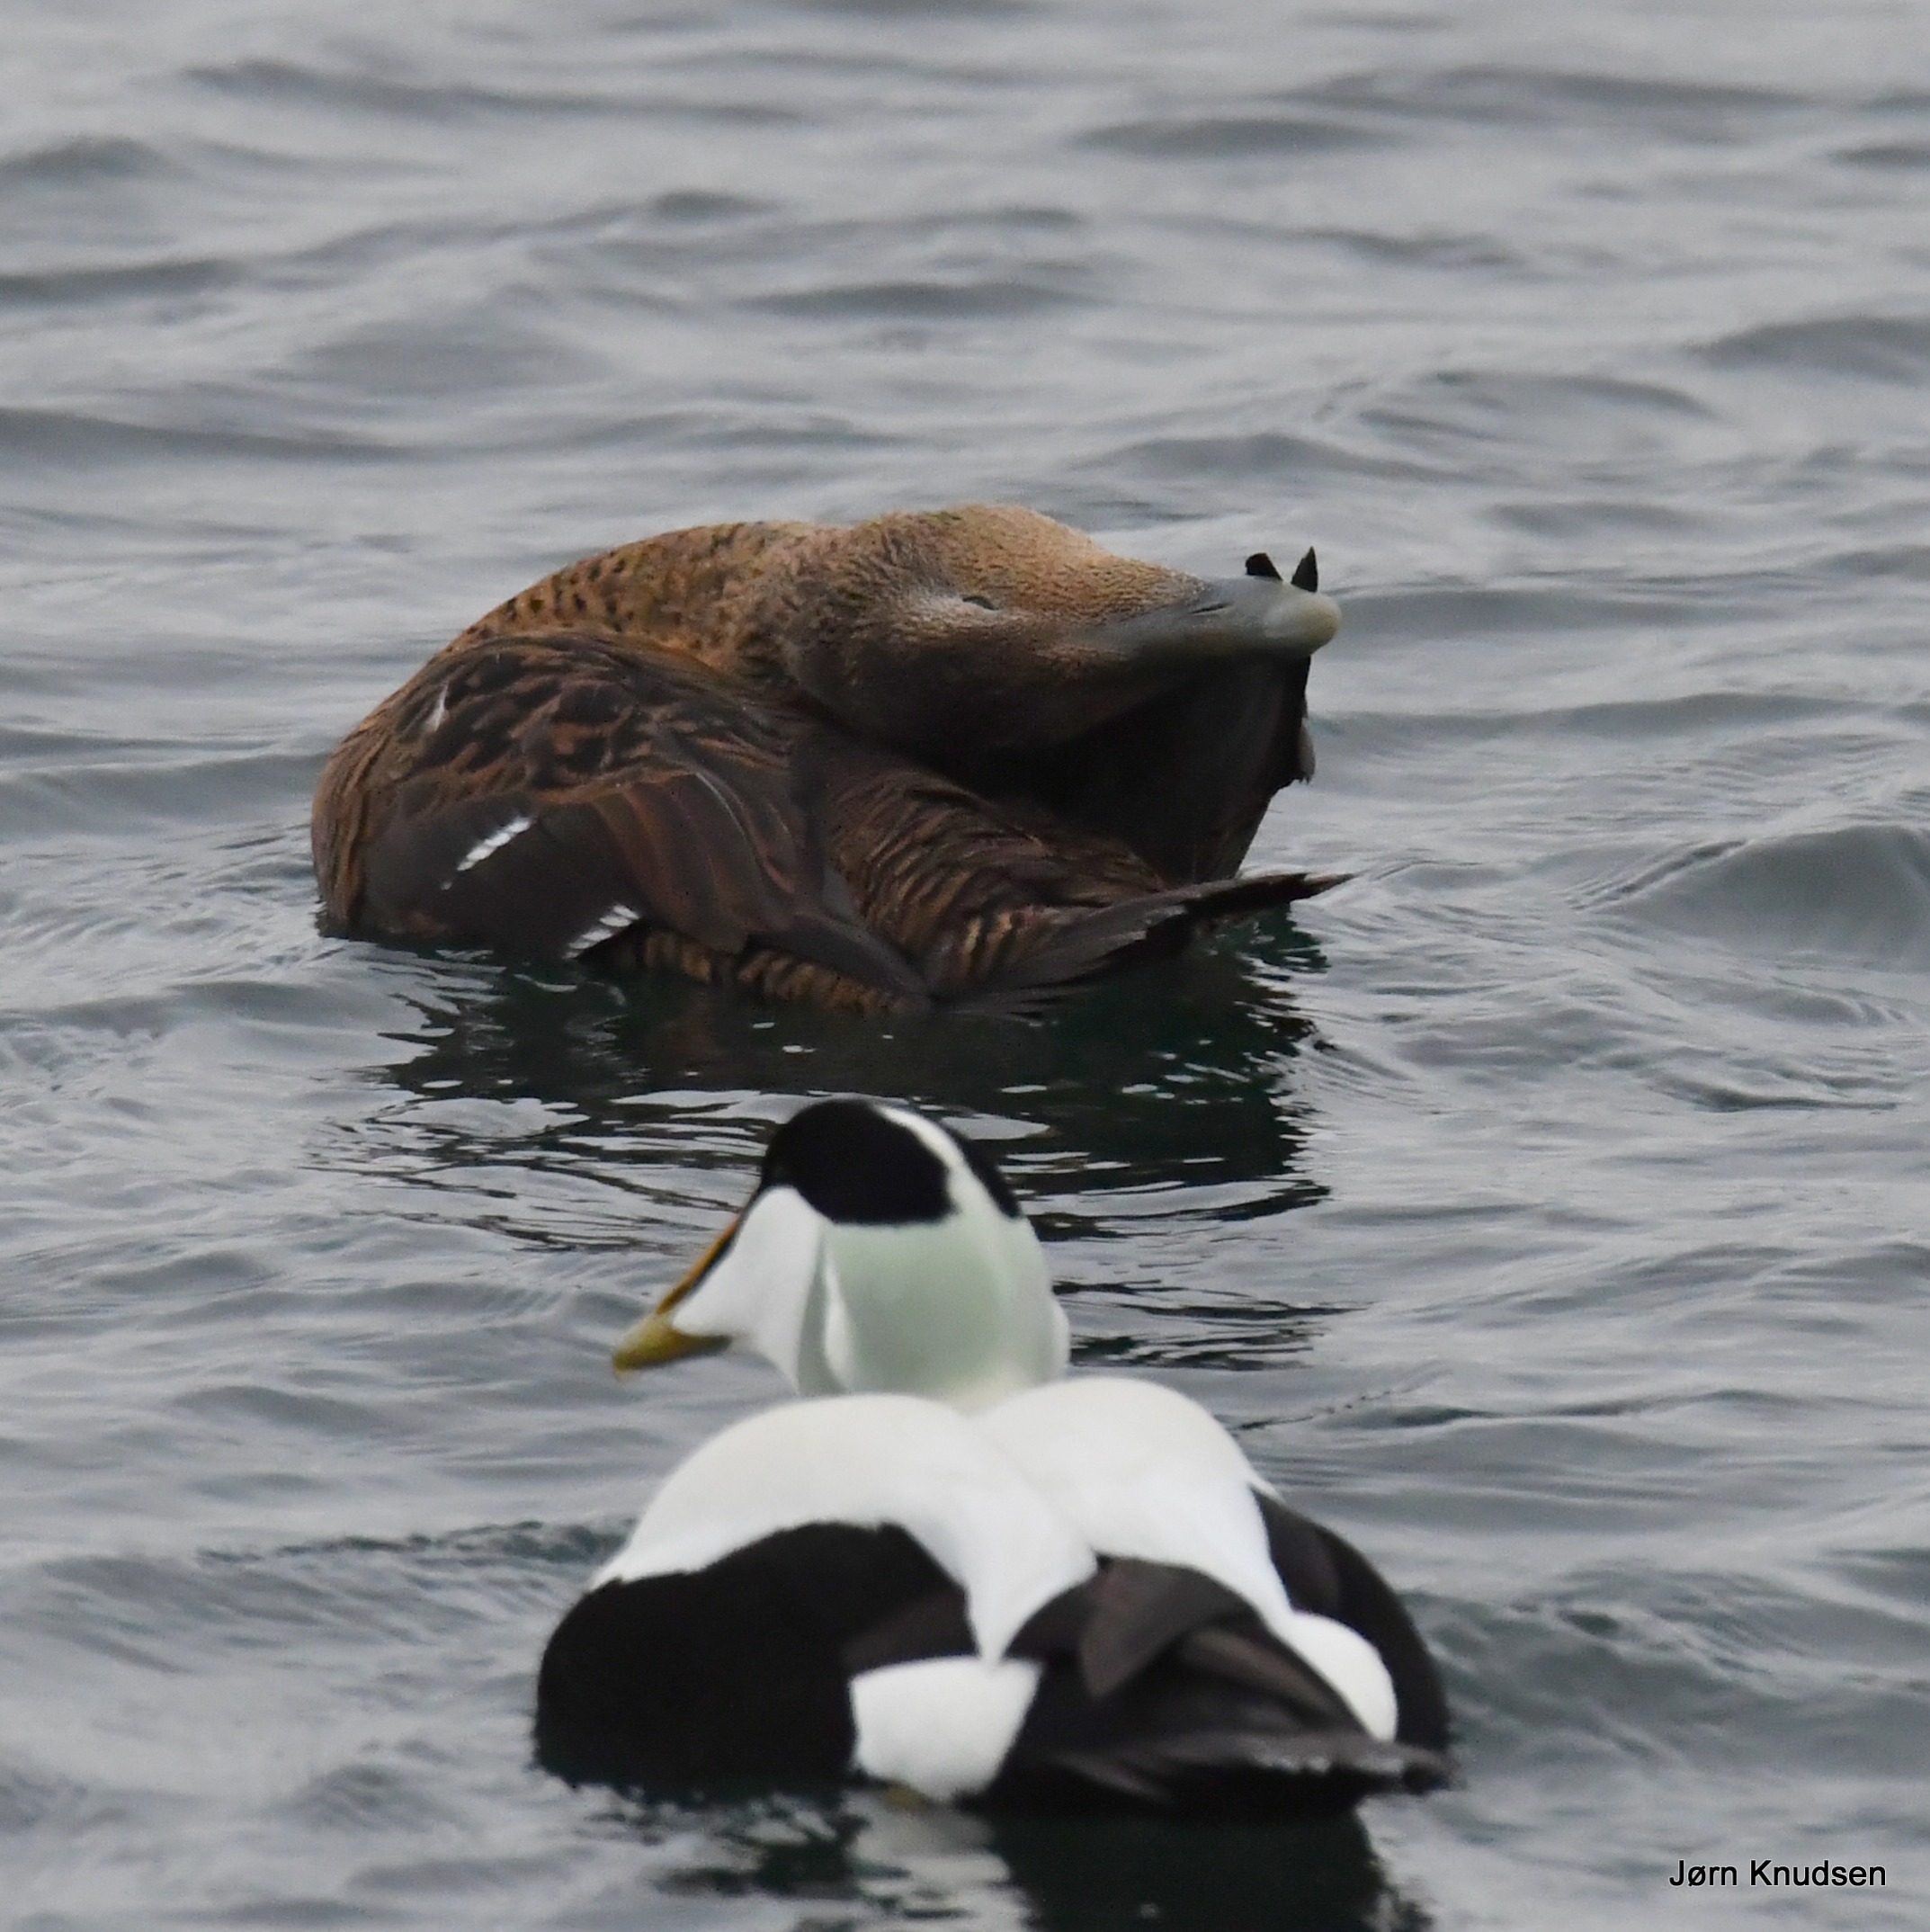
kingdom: Animalia
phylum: Chordata
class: Aves
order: Anseriformes
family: Anatidae
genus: Somateria
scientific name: Somateria mollissima
